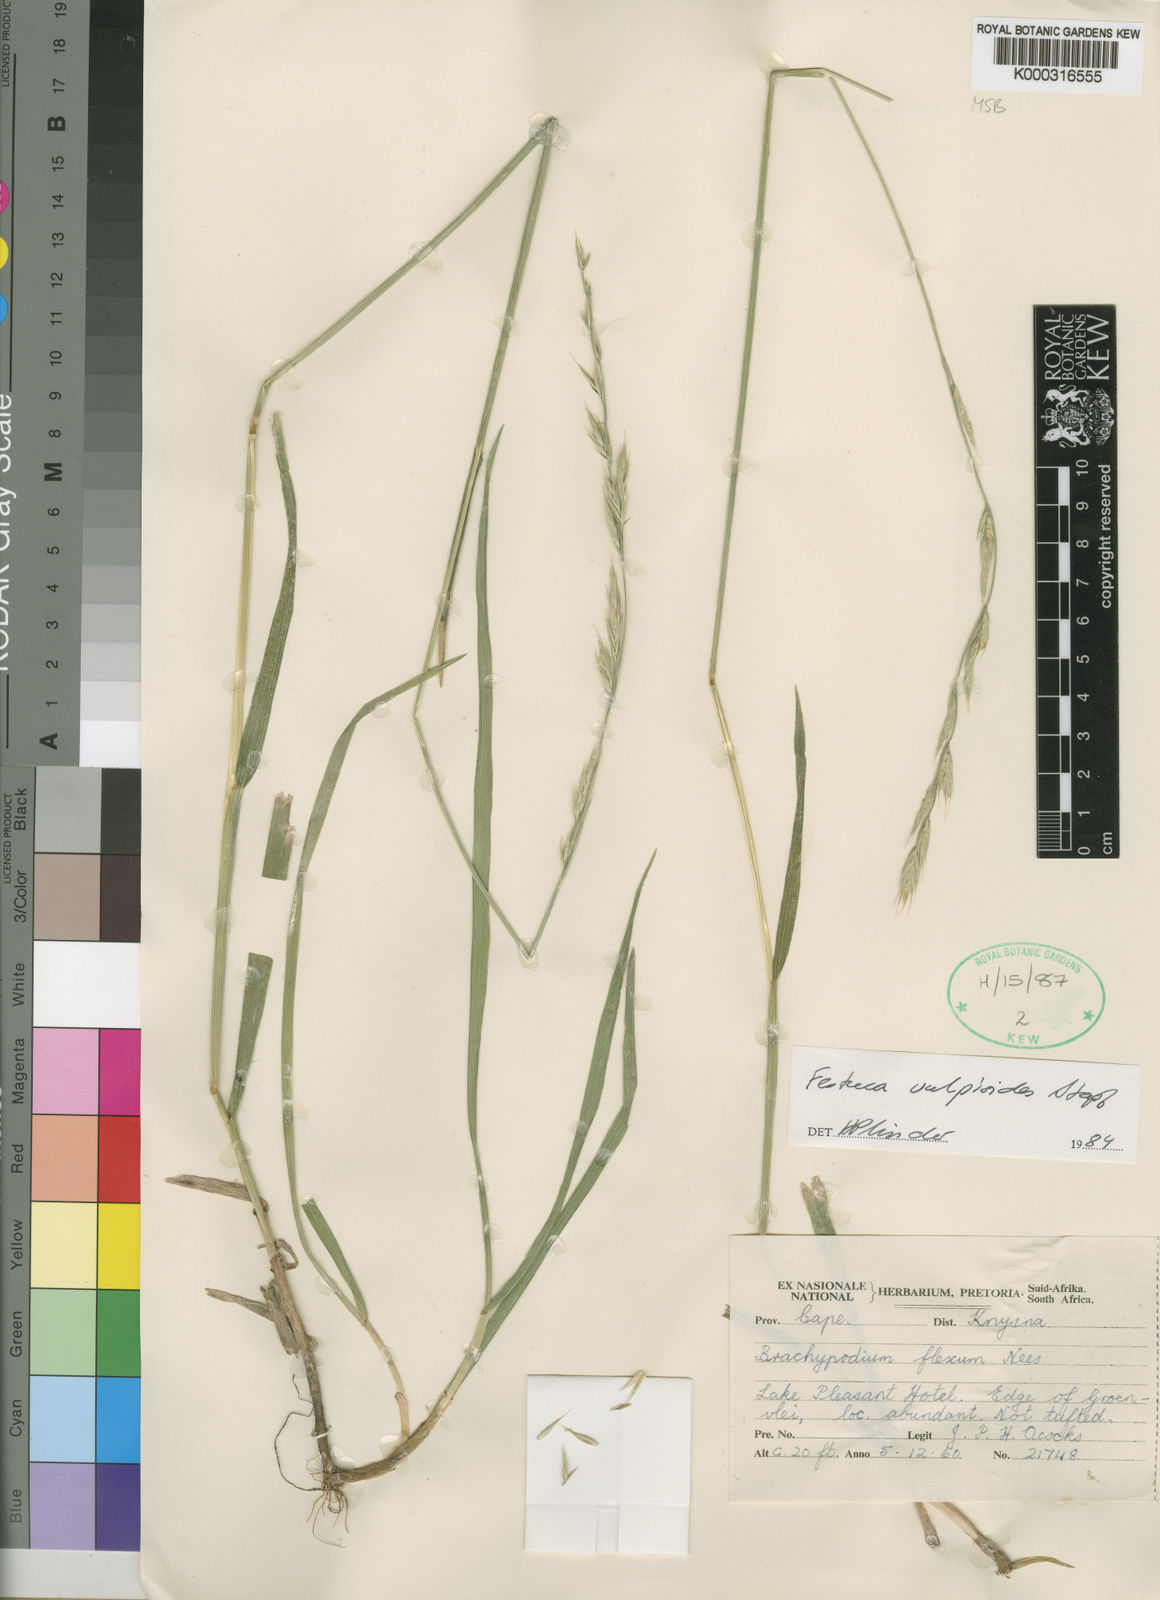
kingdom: Plantae
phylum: Tracheophyta
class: Liliopsida
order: Poales
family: Poaceae
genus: Festuca
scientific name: Festuca vulpioides
